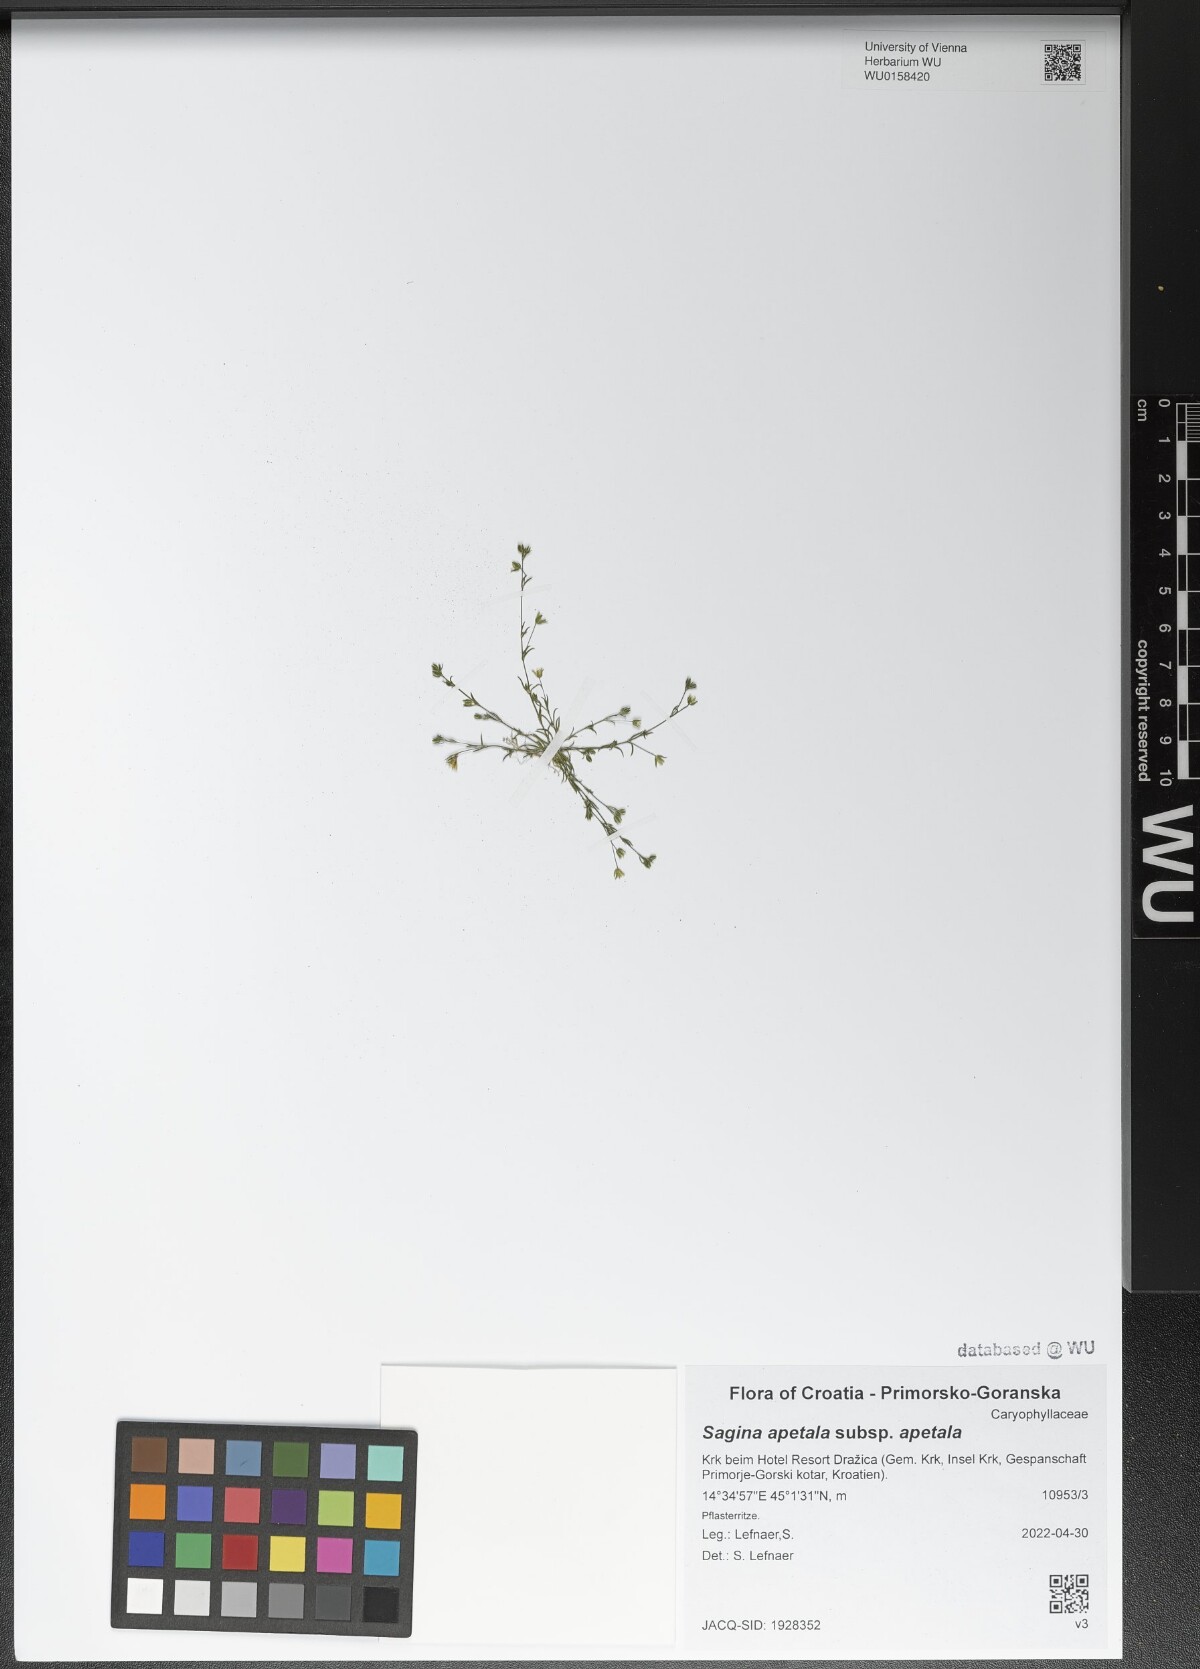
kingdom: Plantae
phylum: Tracheophyta
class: Magnoliopsida
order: Caryophyllales
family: Caryophyllaceae
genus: Sagina
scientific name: Sagina apetala
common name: Annual pearlwort
